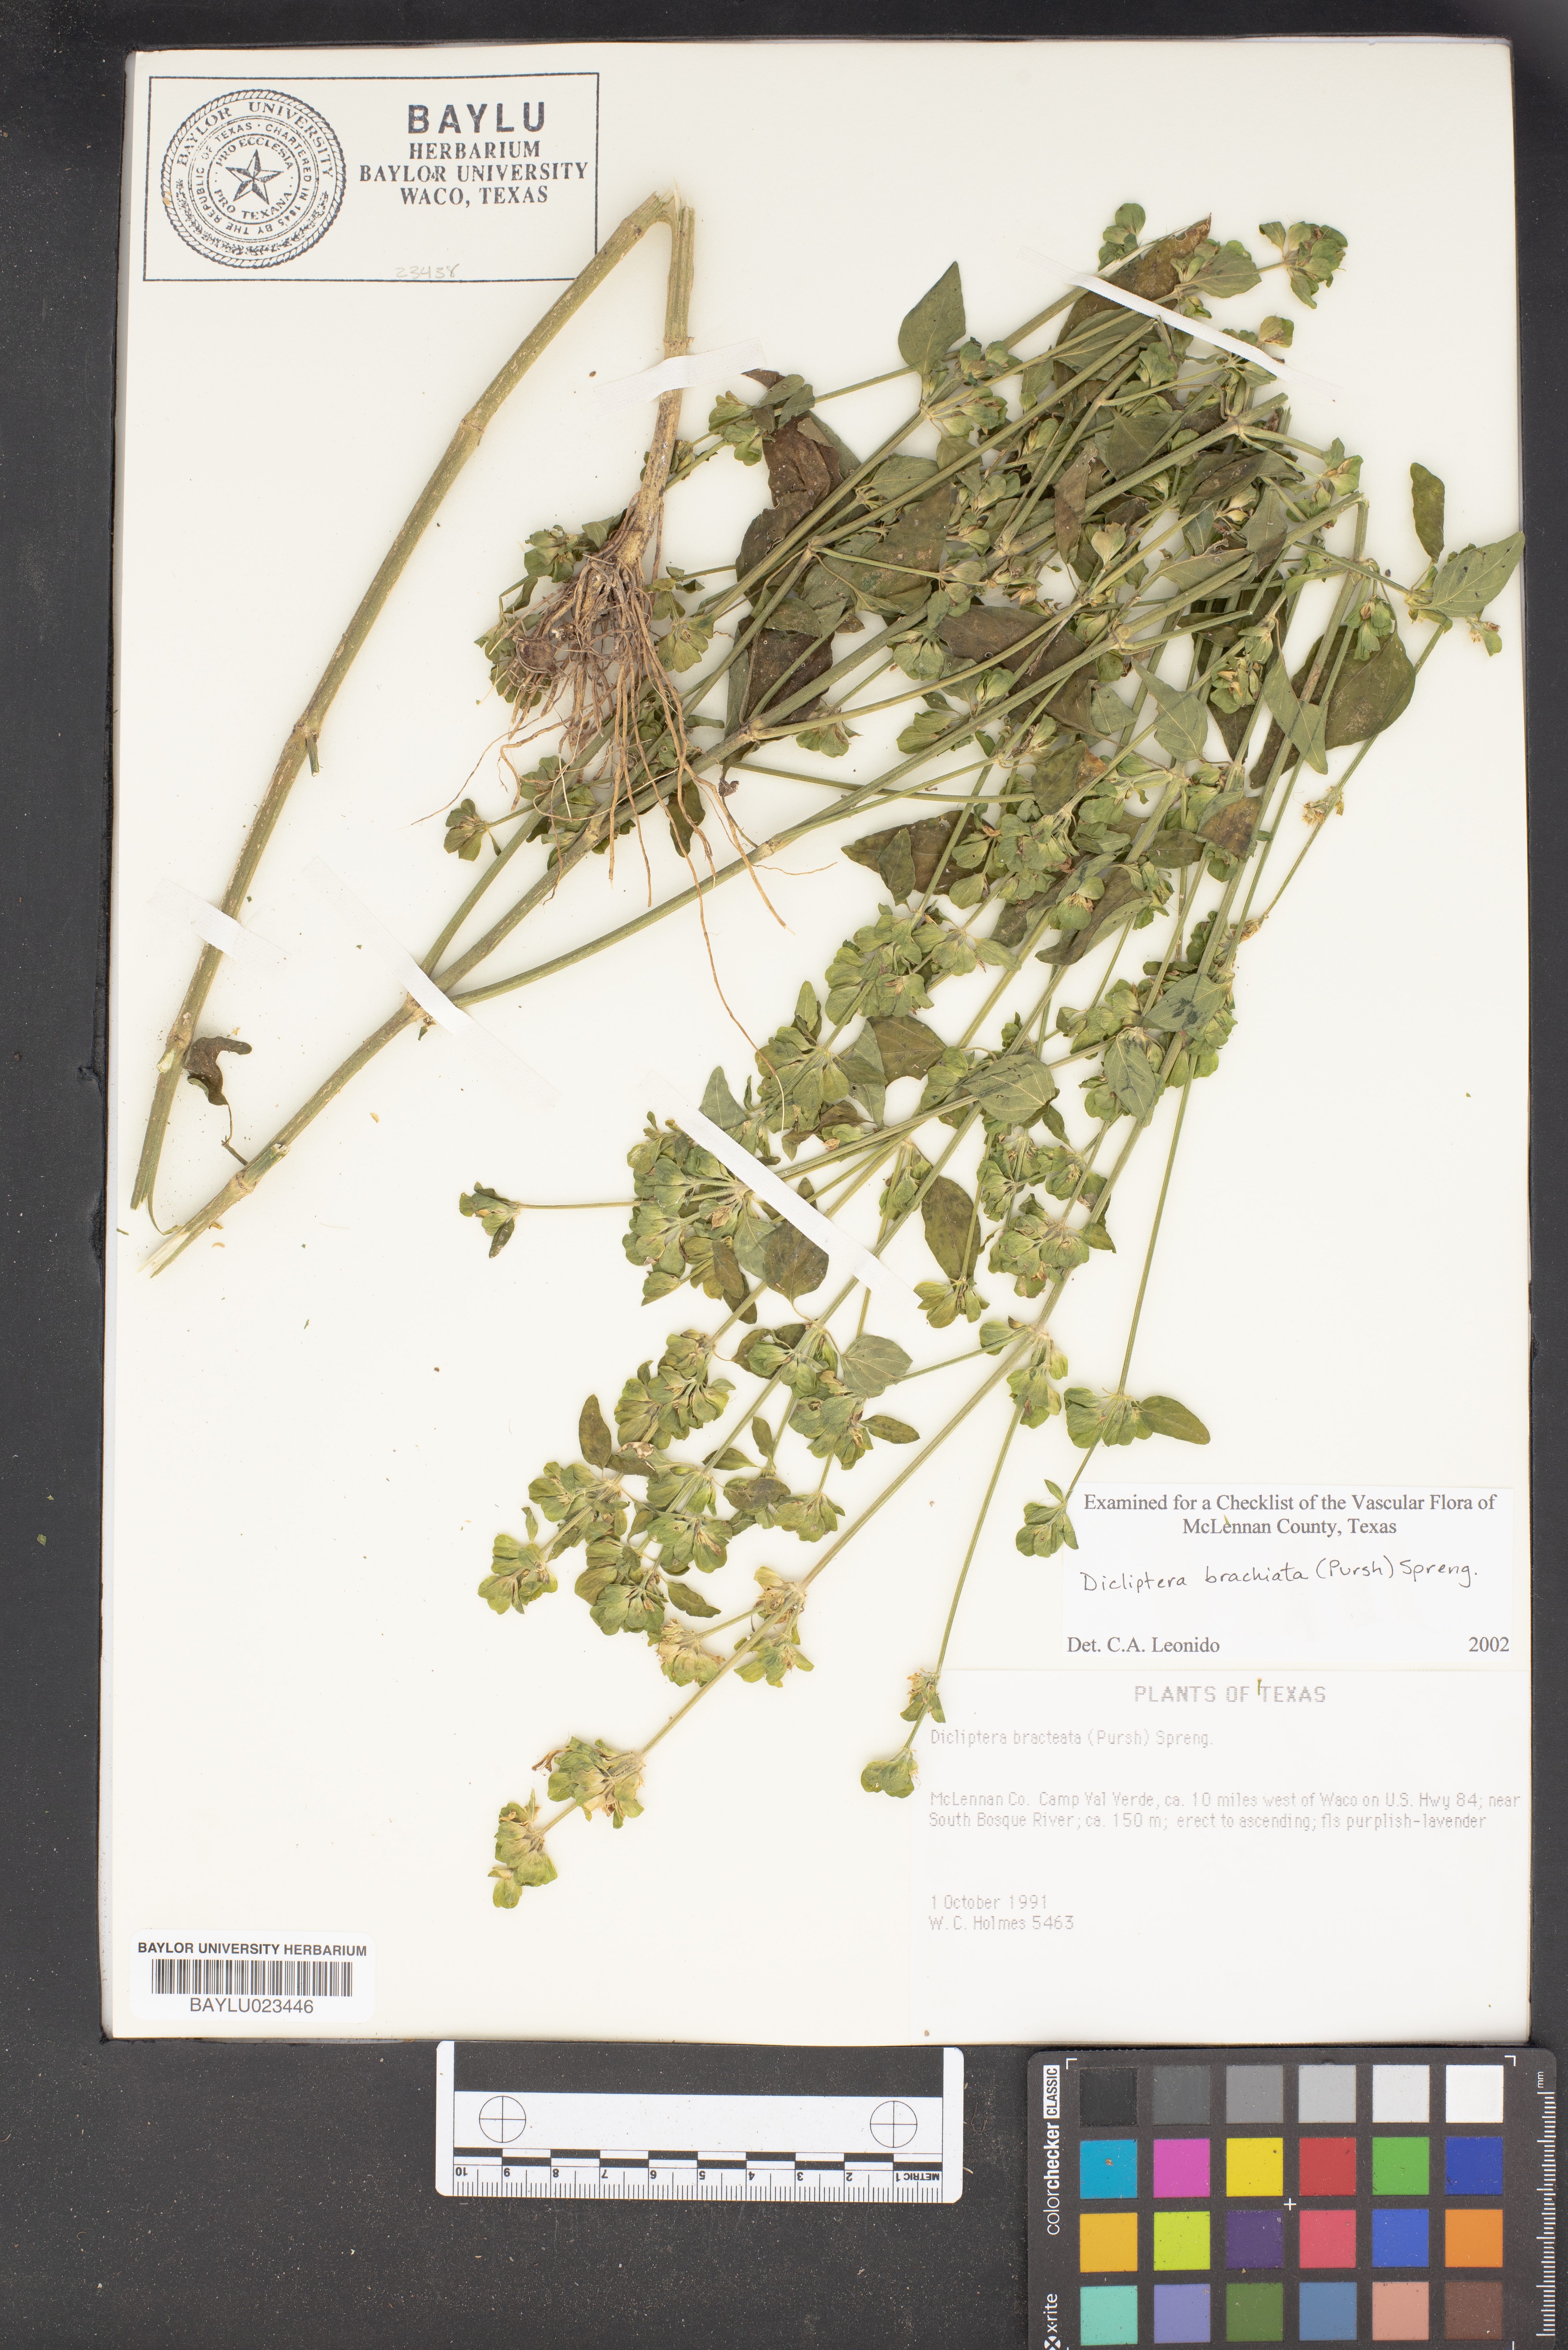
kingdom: Plantae
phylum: Tracheophyta
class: Magnoliopsida
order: Lamiales
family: Acanthaceae
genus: Dicliptera
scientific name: Dicliptera brachiata
